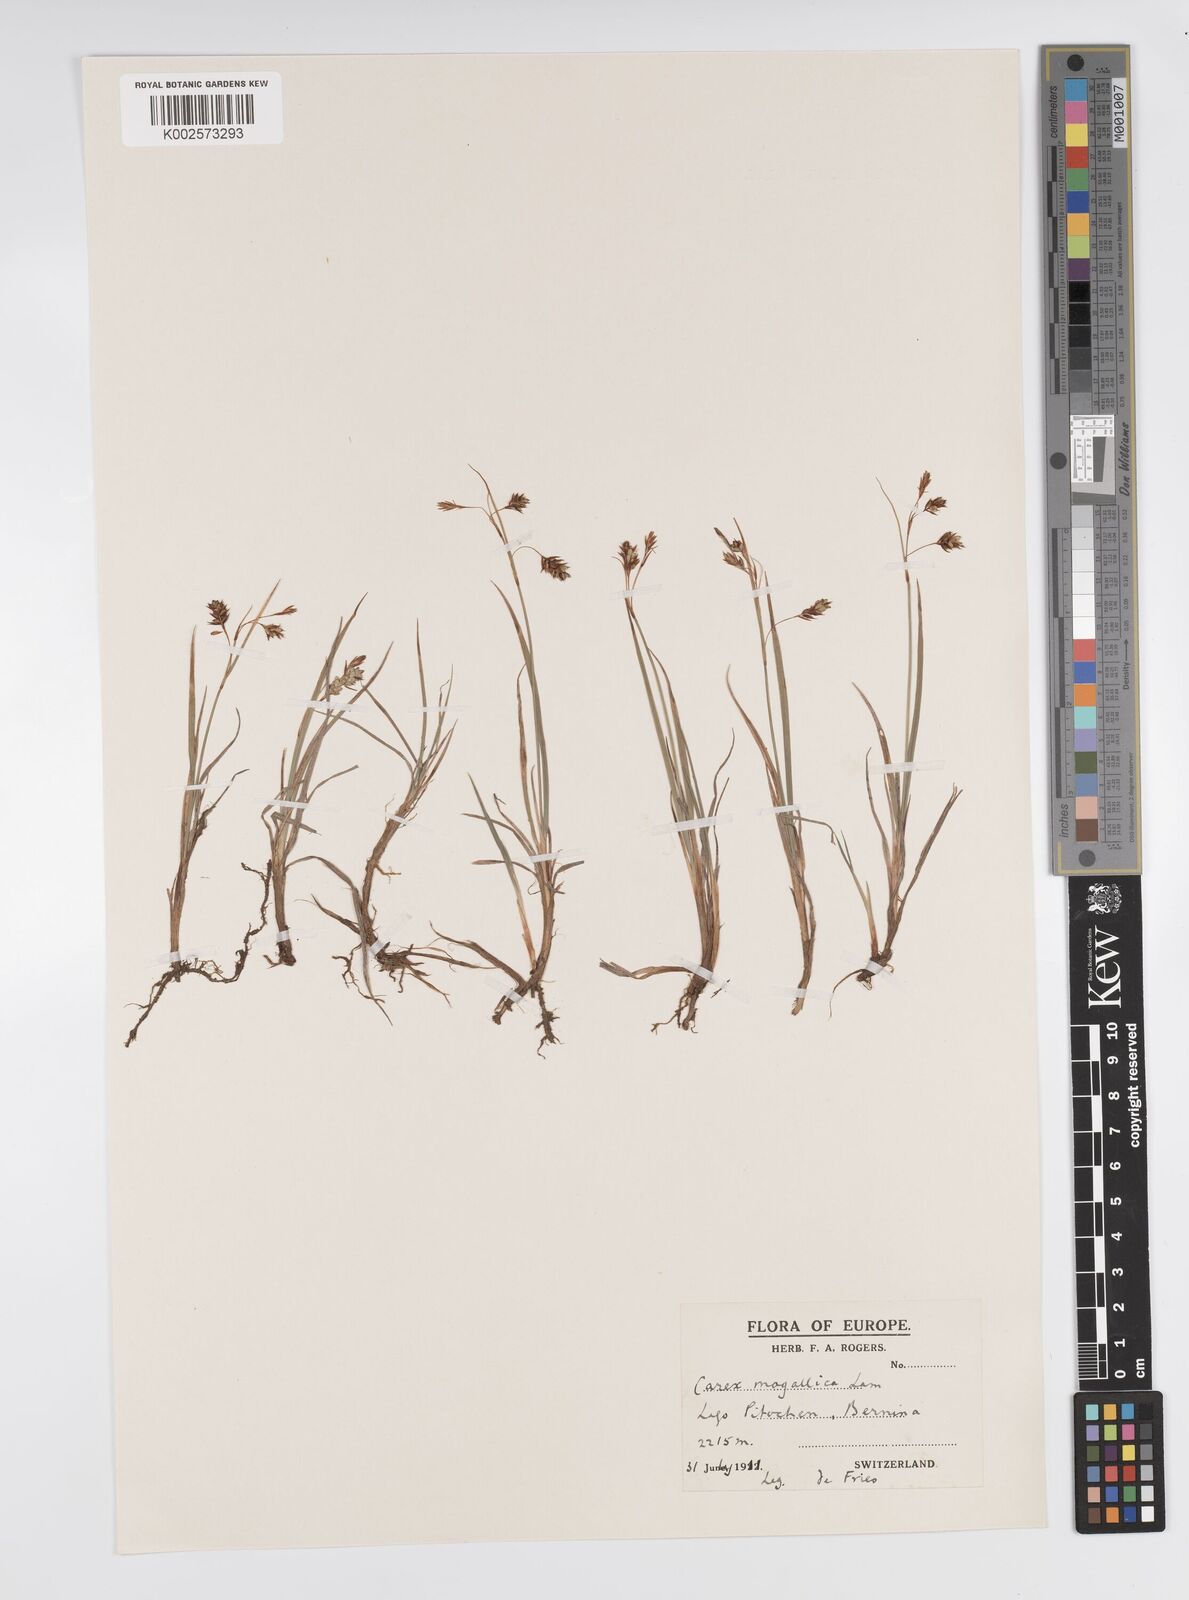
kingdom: Plantae
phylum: Tracheophyta
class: Liliopsida
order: Poales
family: Cyperaceae
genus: Carex
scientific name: Carex magellanica
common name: Bog sedge
